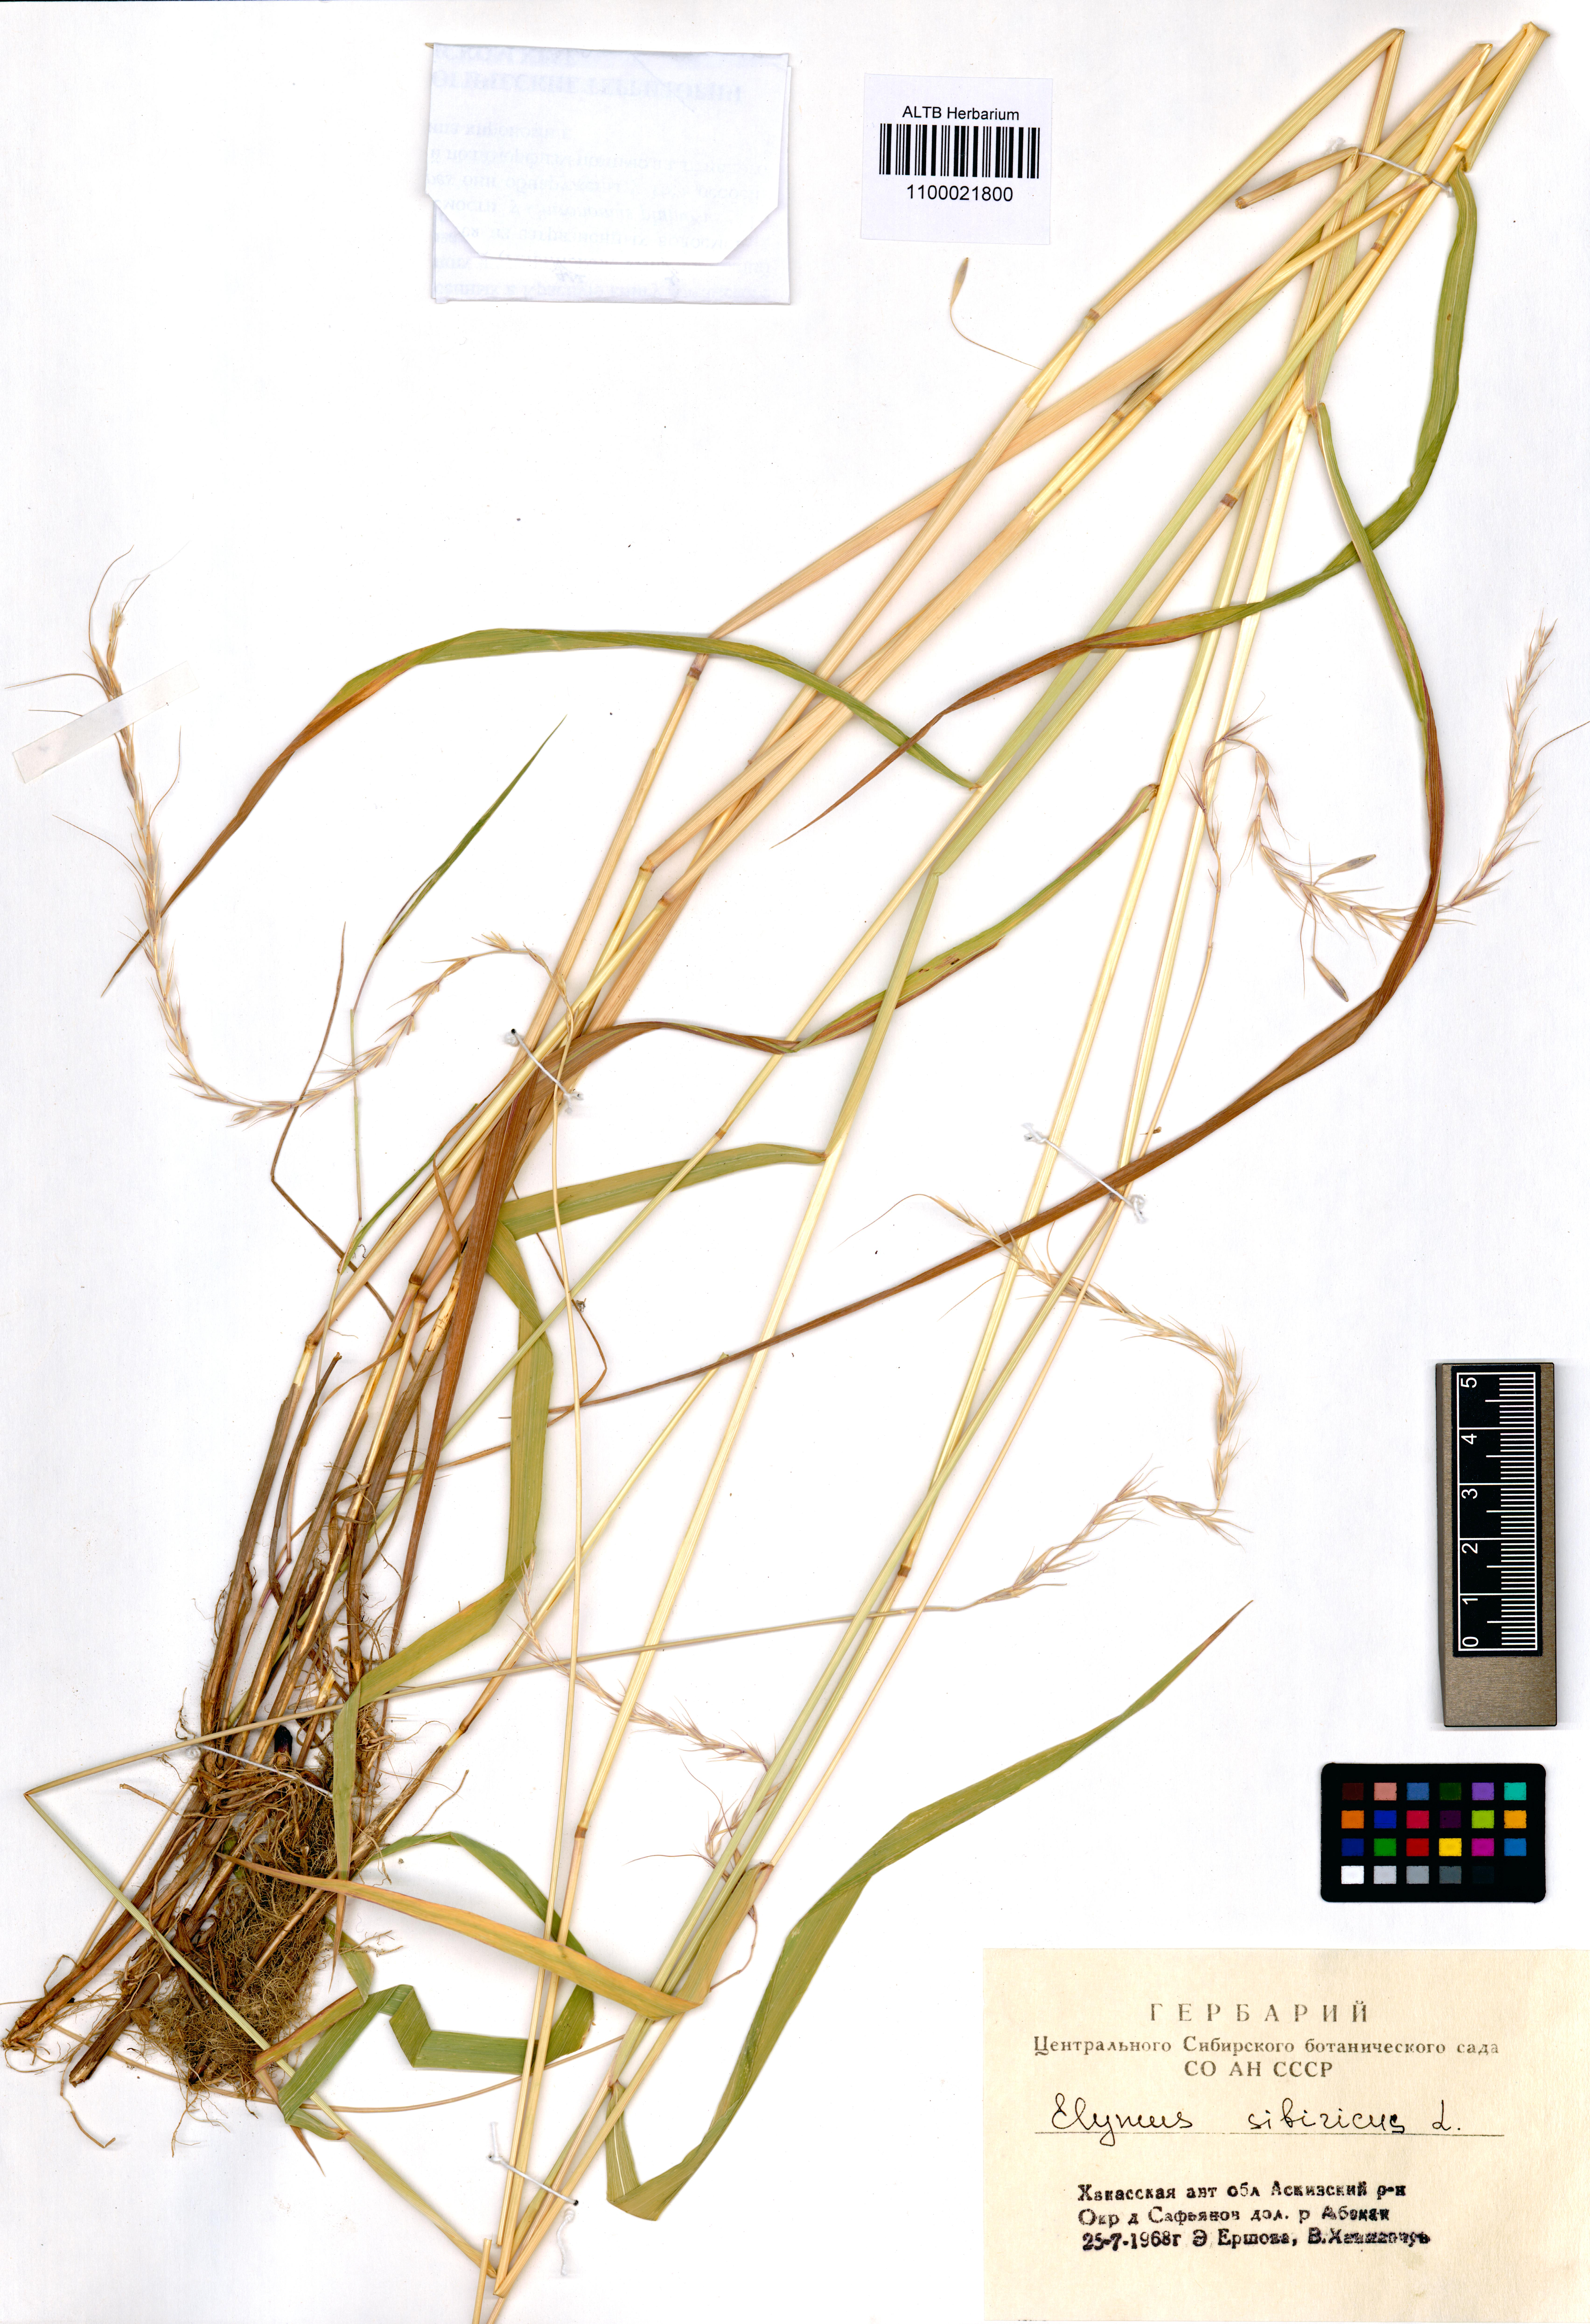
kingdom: Plantae
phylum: Tracheophyta
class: Liliopsida
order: Poales
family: Poaceae
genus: Elymus
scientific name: Elymus sibiricus
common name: Siberian wildrye
